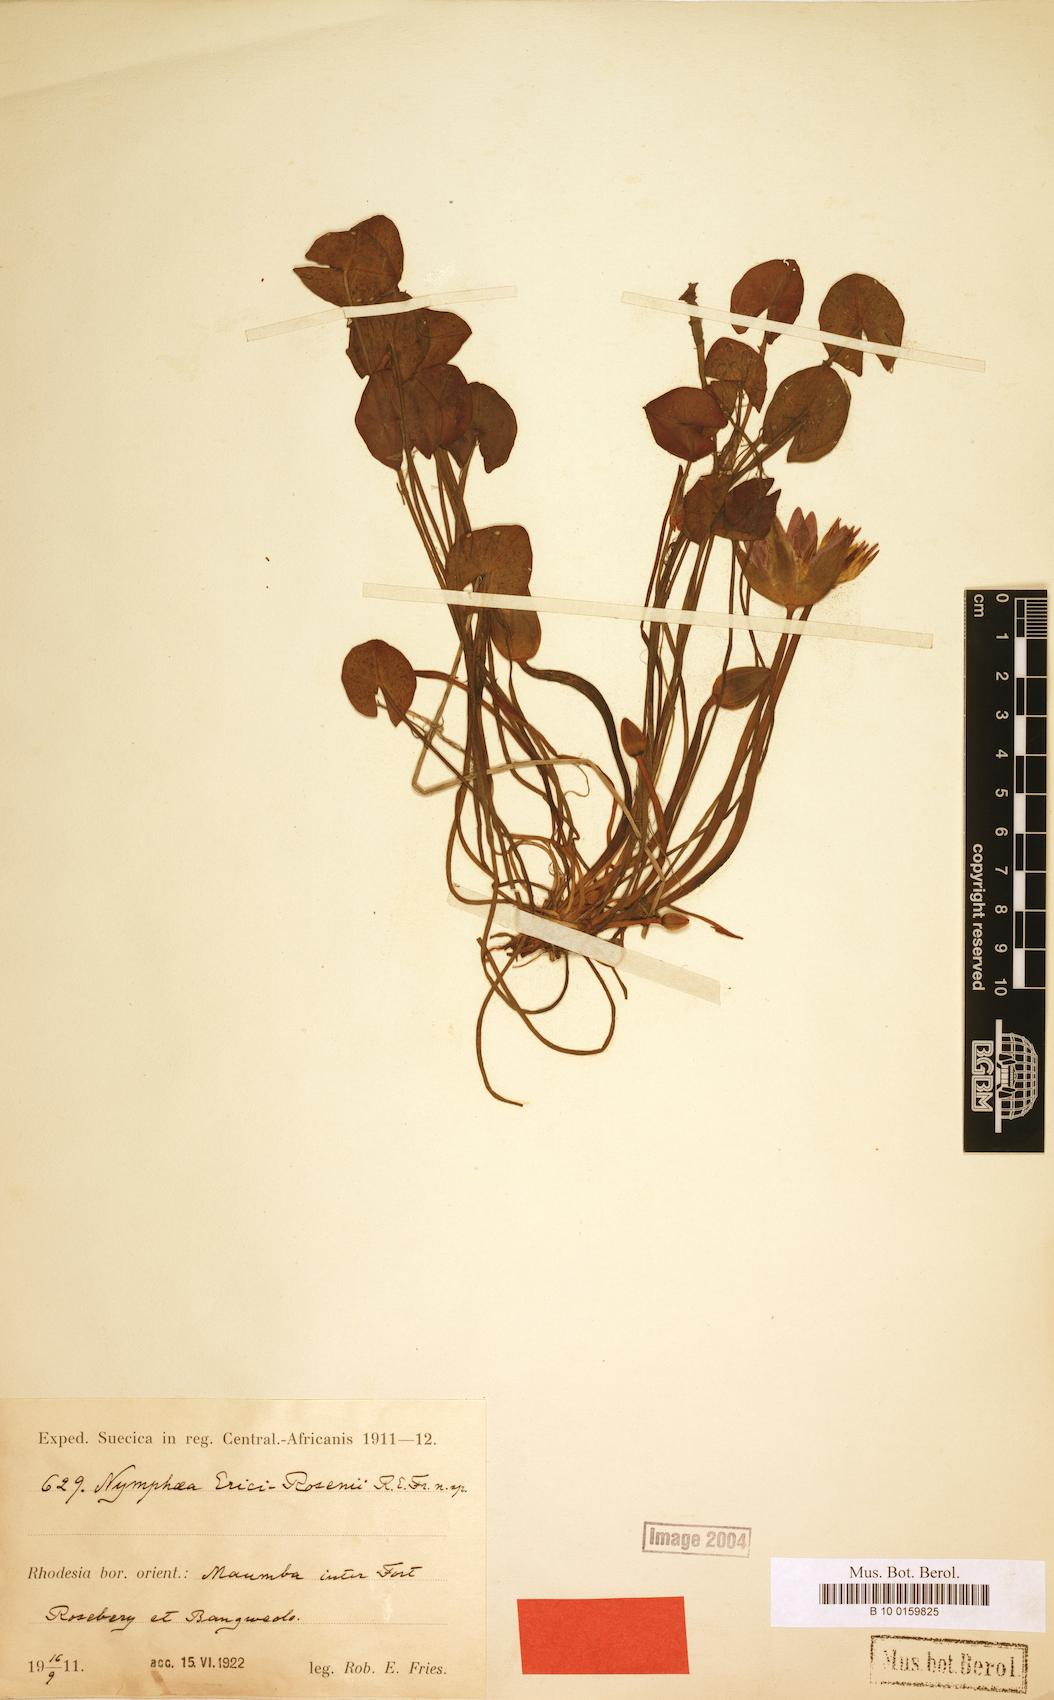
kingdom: Plantae
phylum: Tracheophyta
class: Magnoliopsida
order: Nymphaeales
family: Nymphaeaceae
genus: Nymphaea
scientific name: Nymphaea heudelotii
